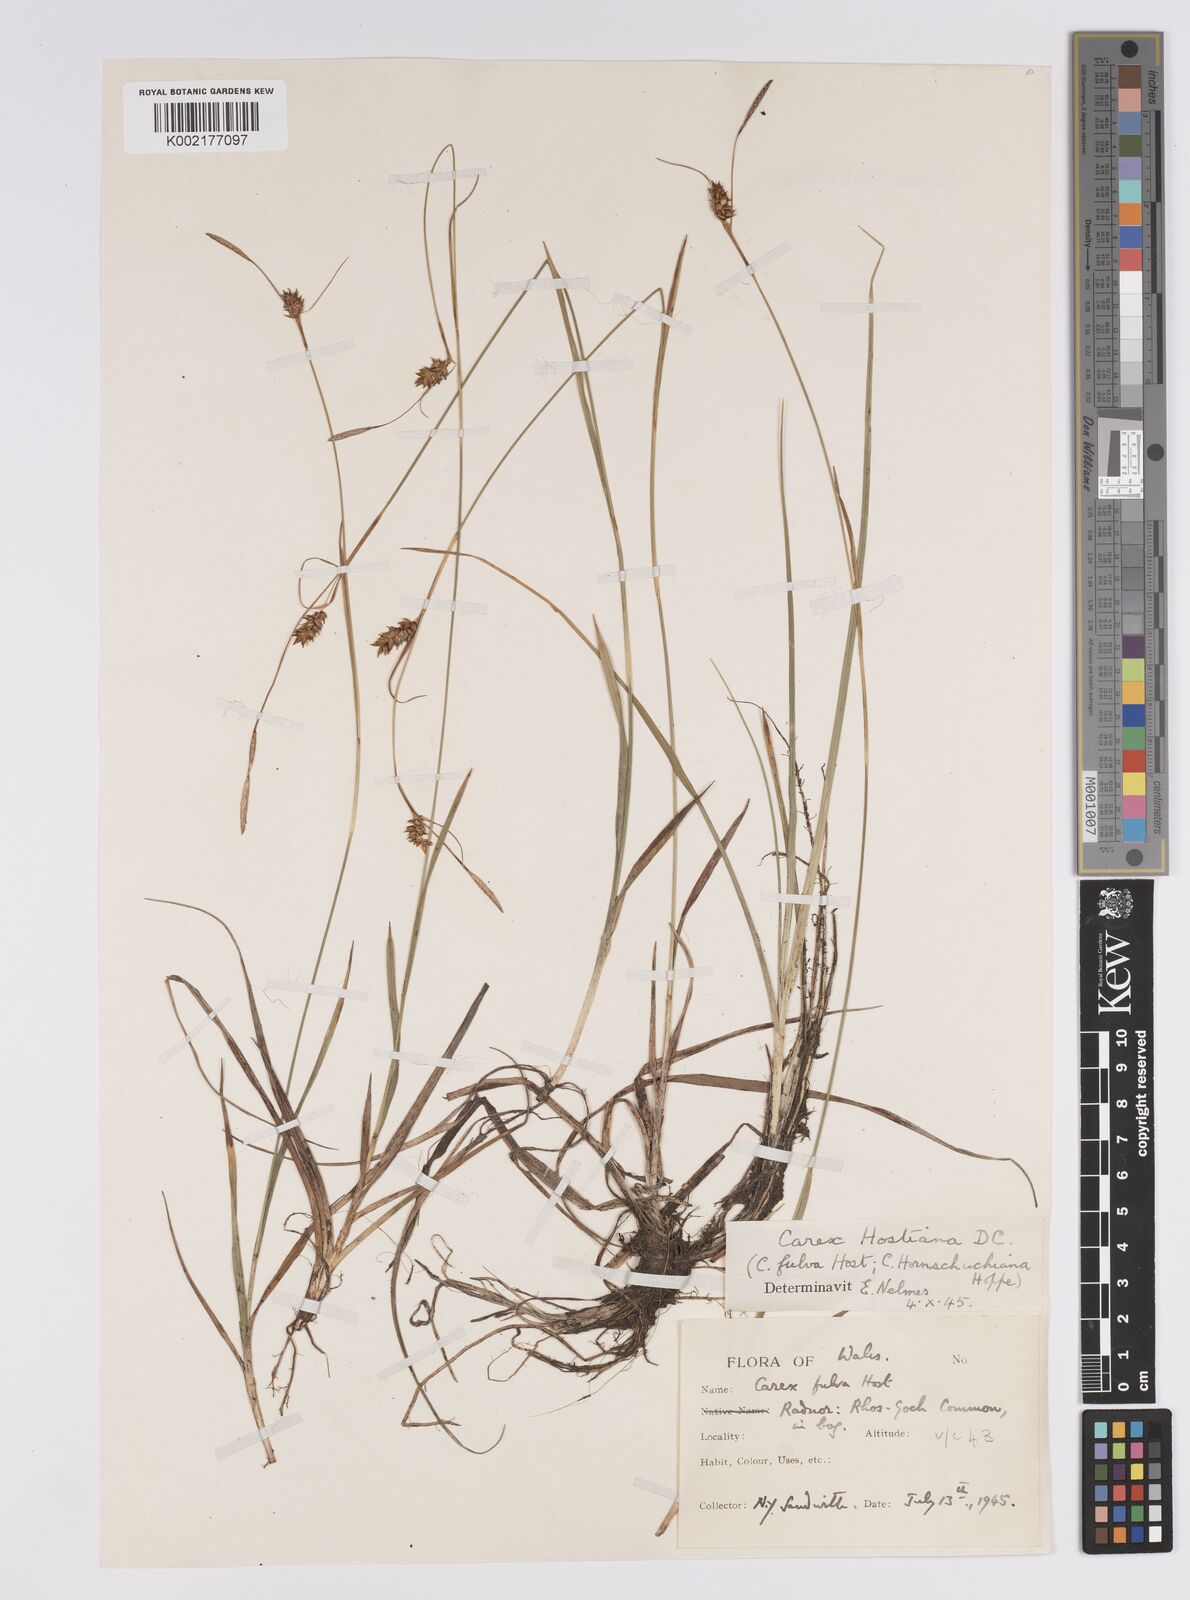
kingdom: Plantae
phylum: Tracheophyta
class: Liliopsida
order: Poales
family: Cyperaceae
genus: Carex
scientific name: Carex hostiana
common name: Tawny sedge
